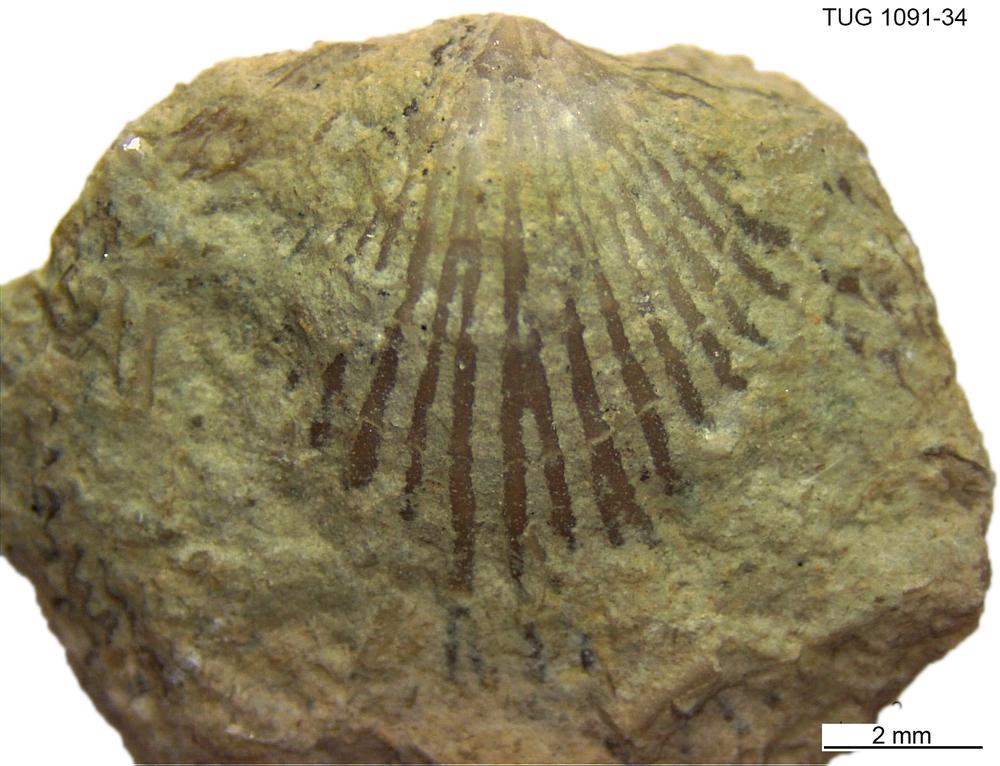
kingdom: Animalia
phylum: Brachiopoda
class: Rhynchonellata
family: Atrypidae
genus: Atrypa
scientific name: Atrypa
